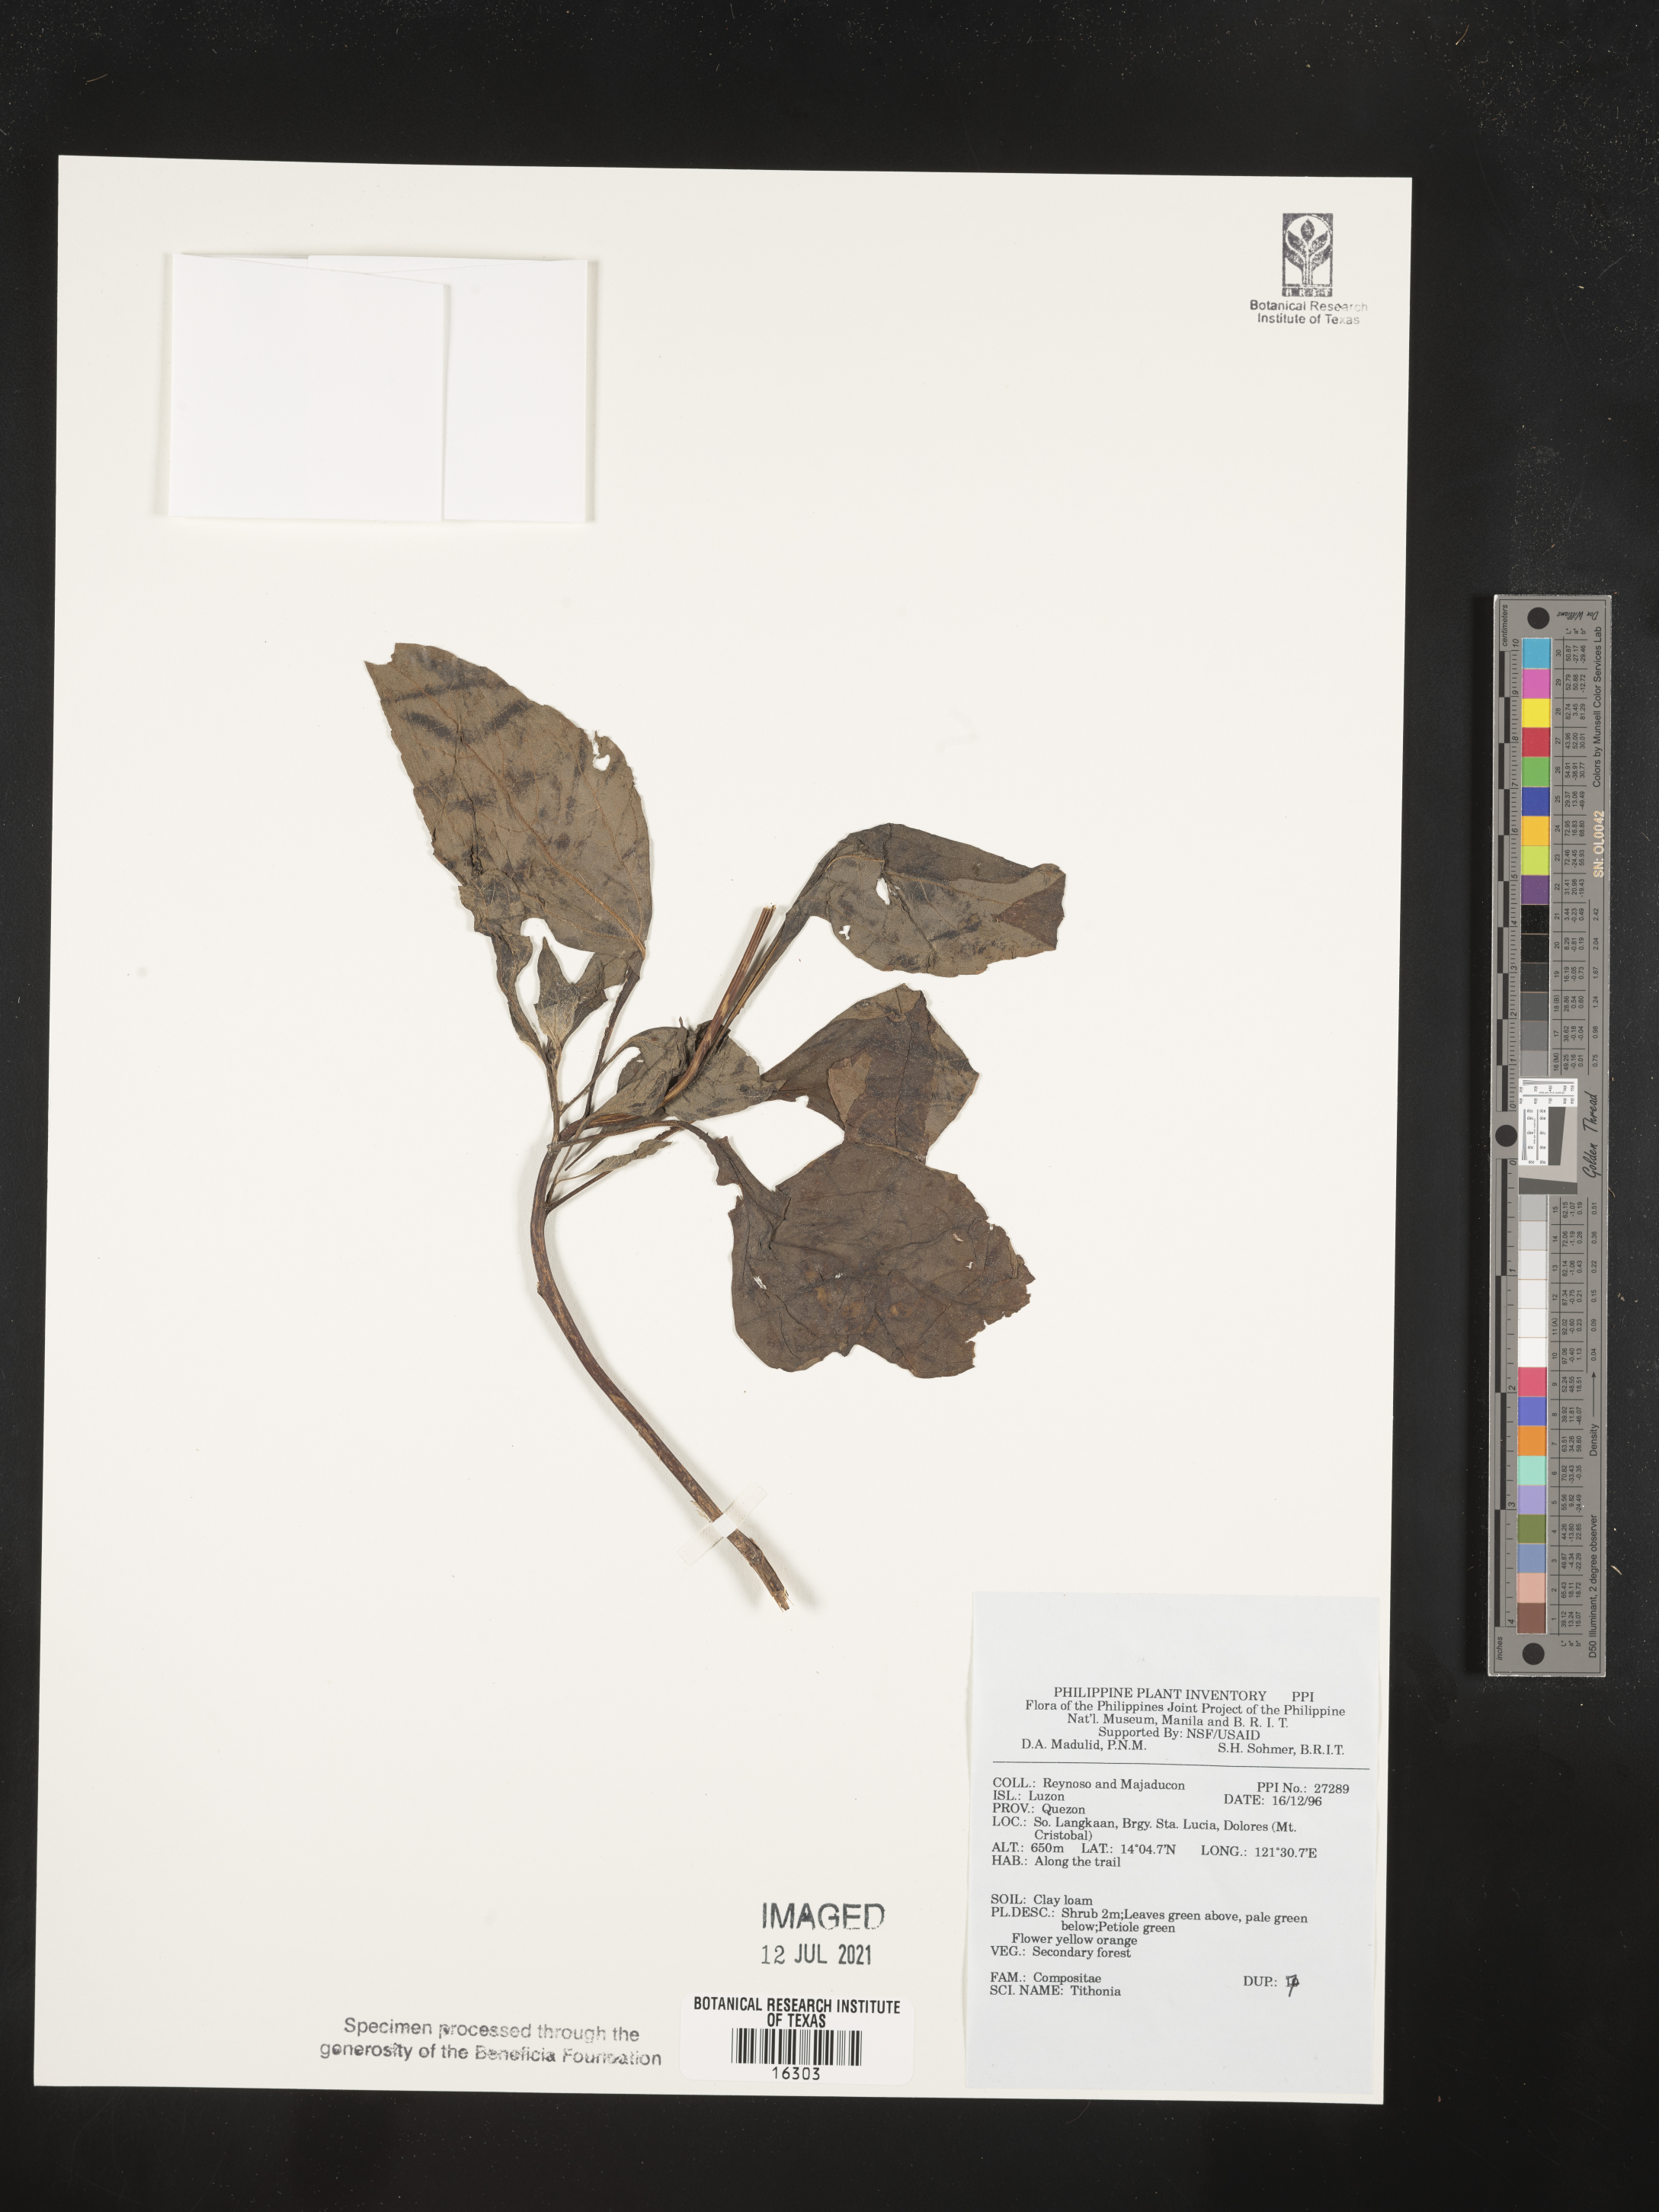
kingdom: Plantae
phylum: Tracheophyta
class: Magnoliopsida
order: Asterales
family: Asteraceae
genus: Tithonia
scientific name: Tithonia
